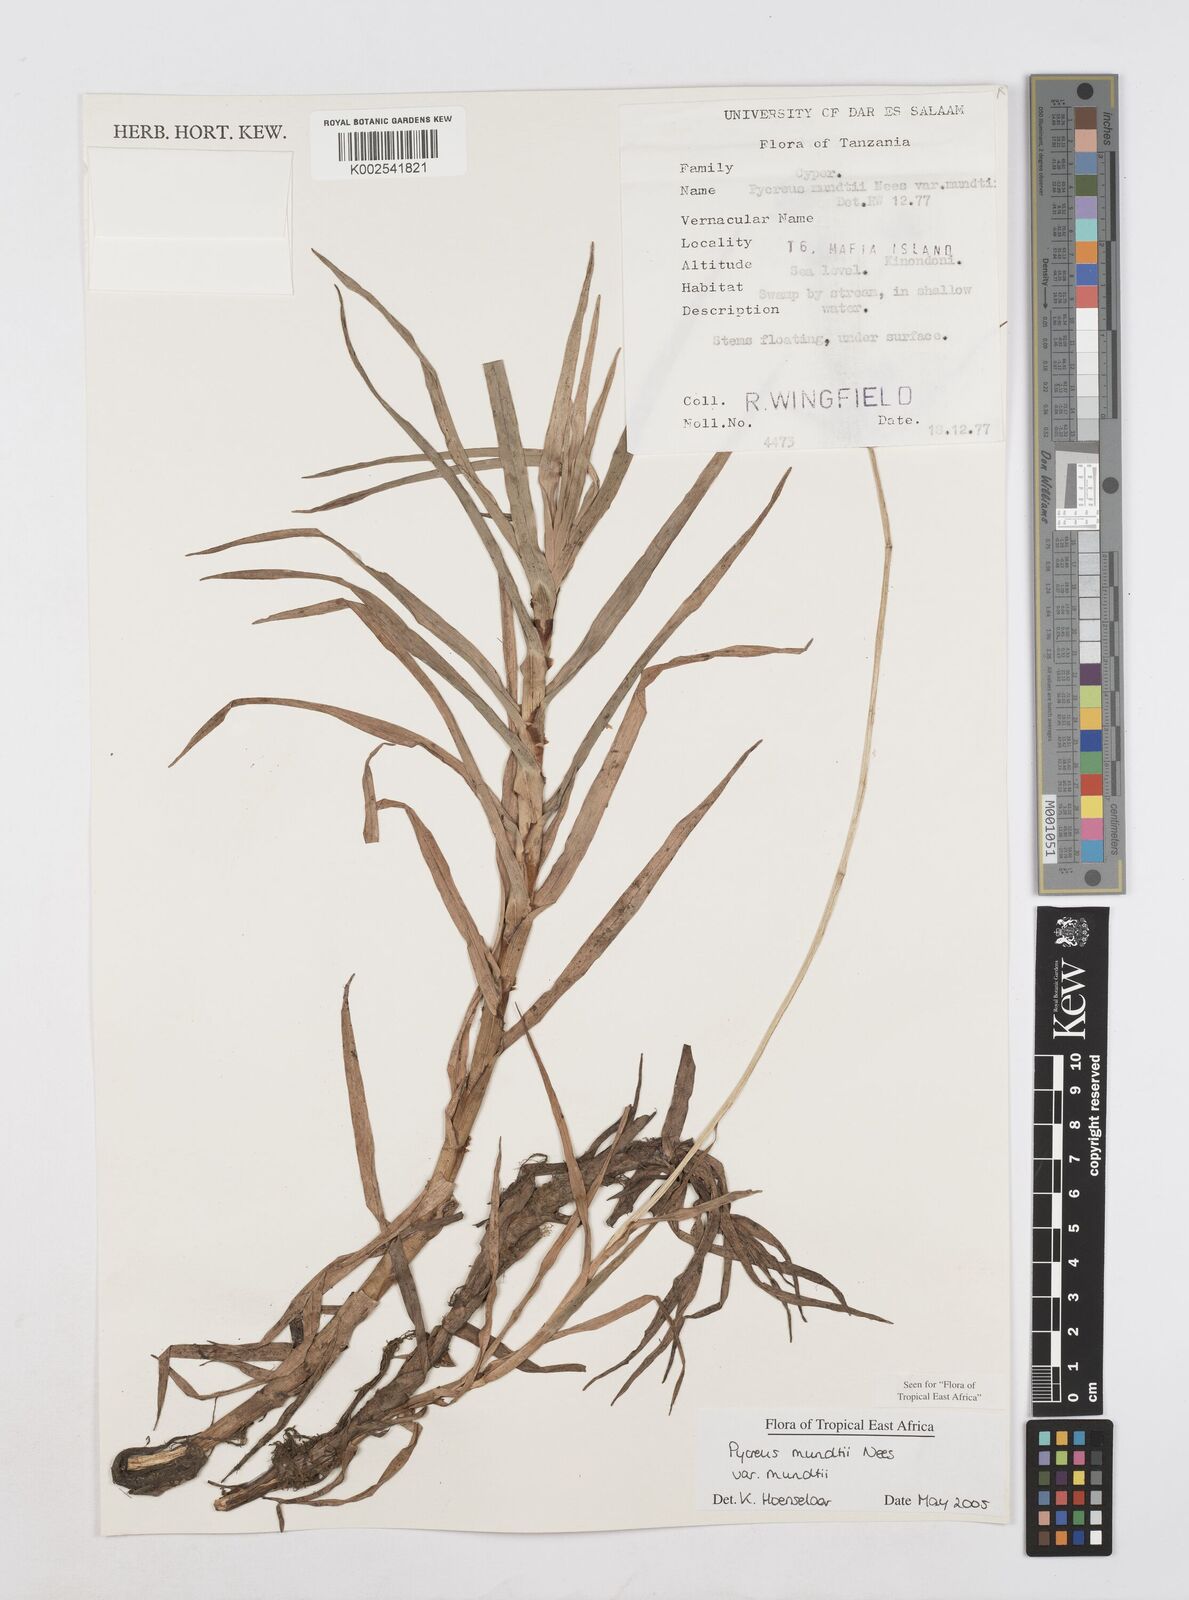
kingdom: Plantae
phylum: Tracheophyta
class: Liliopsida
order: Poales
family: Cyperaceae
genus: Cyperus
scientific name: Cyperus mundii
